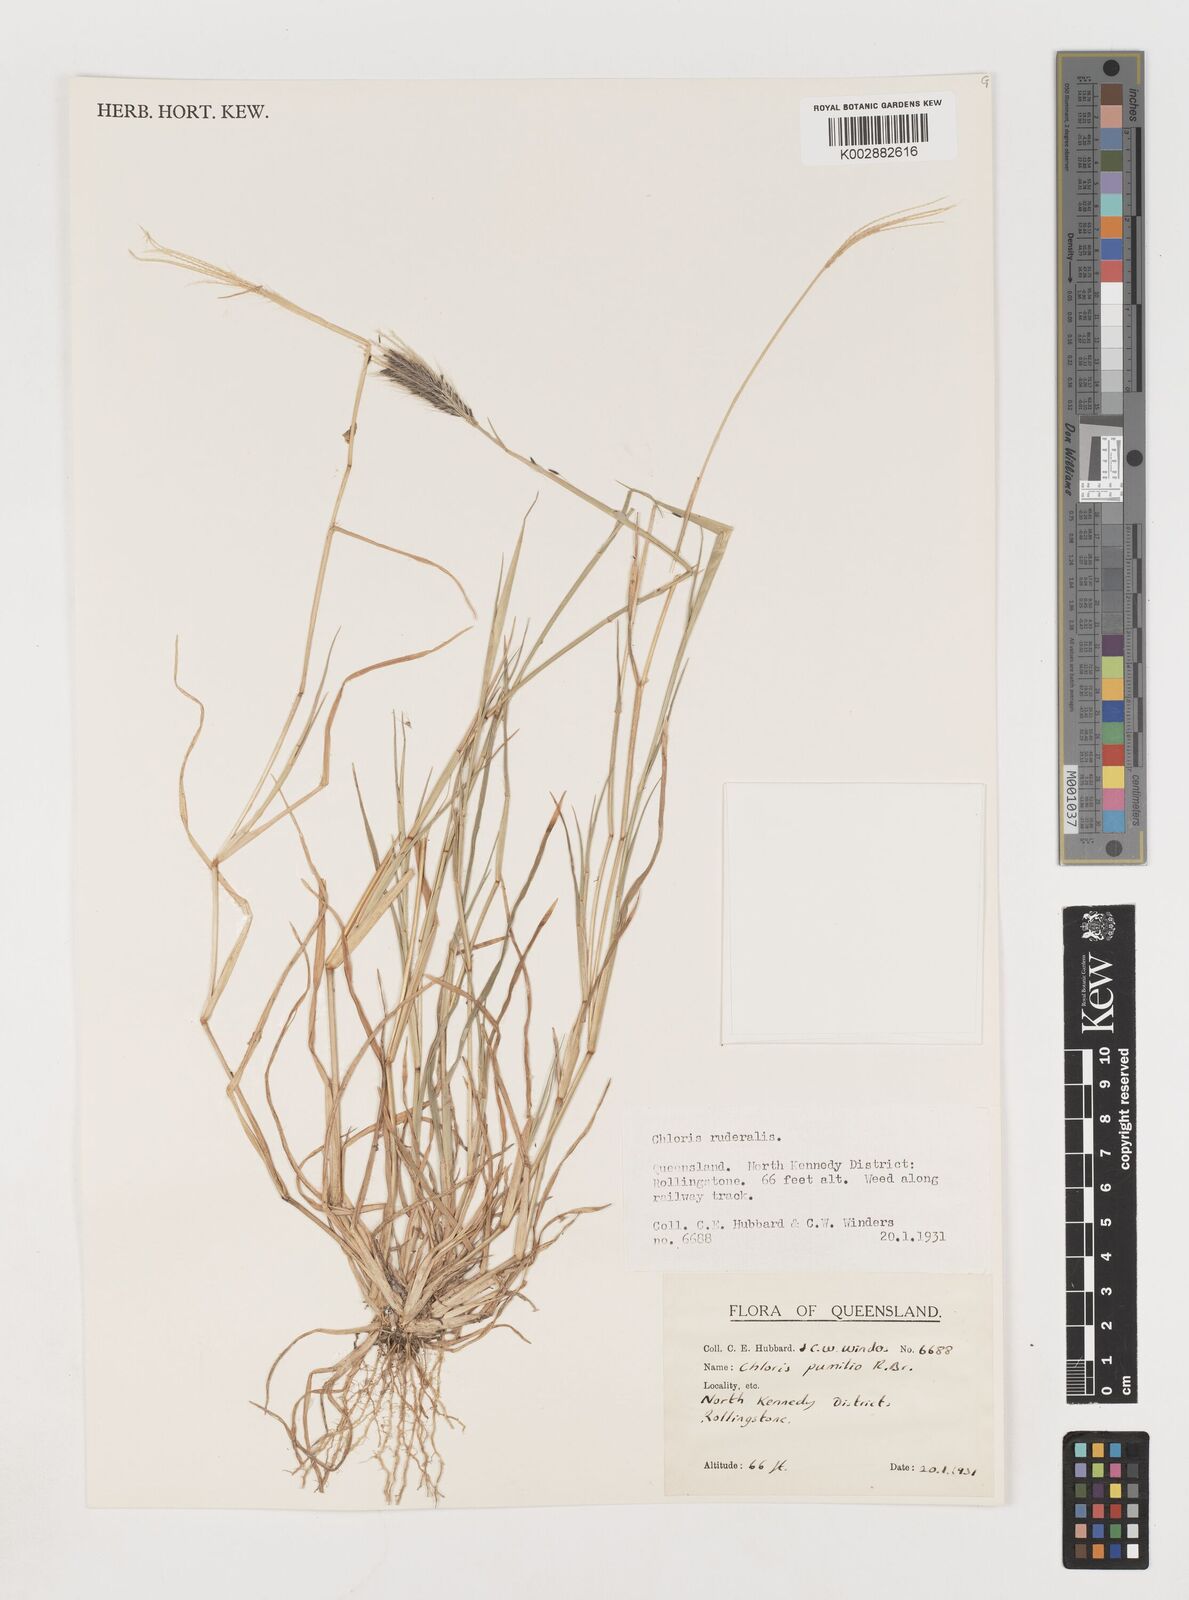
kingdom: Plantae
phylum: Tracheophyta
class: Liliopsida
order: Poales
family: Poaceae
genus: Chloris
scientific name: Chloris pumilio
